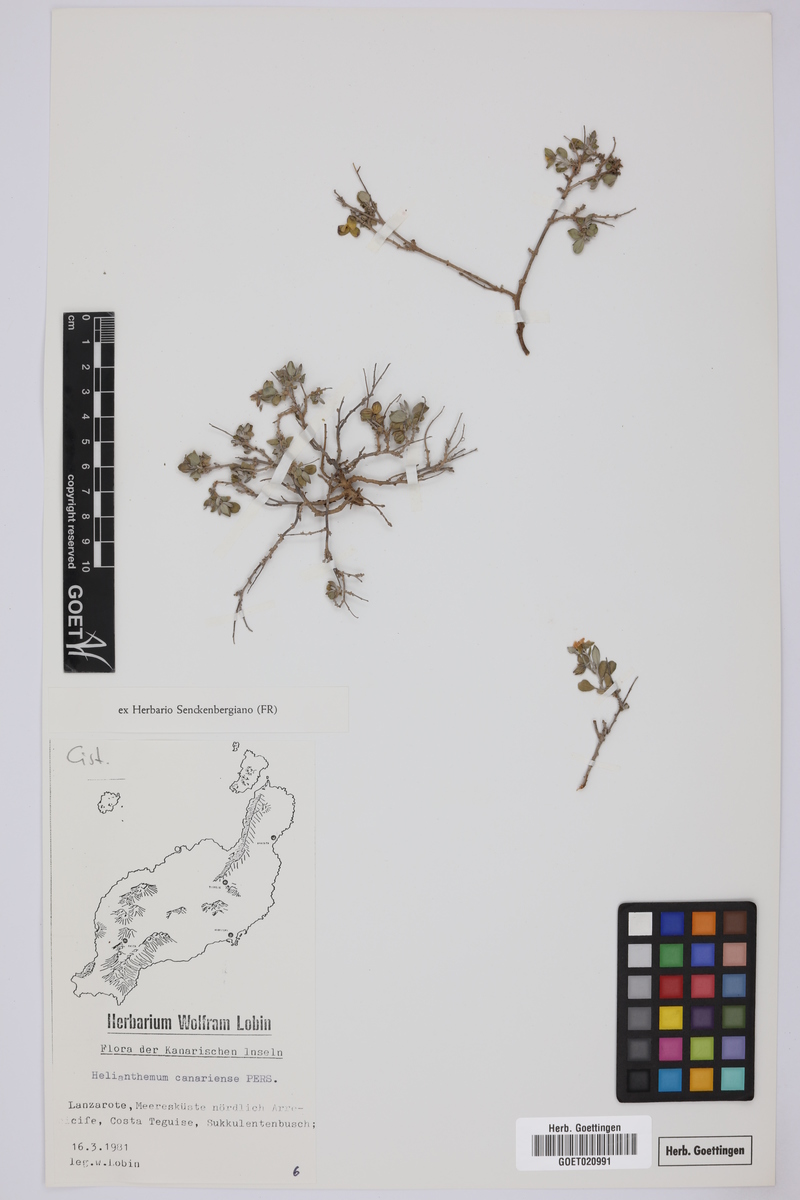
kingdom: Plantae
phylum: Tracheophyta
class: Magnoliopsida
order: Malvales
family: Cistaceae
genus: Helianthemum
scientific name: Helianthemum canariense
